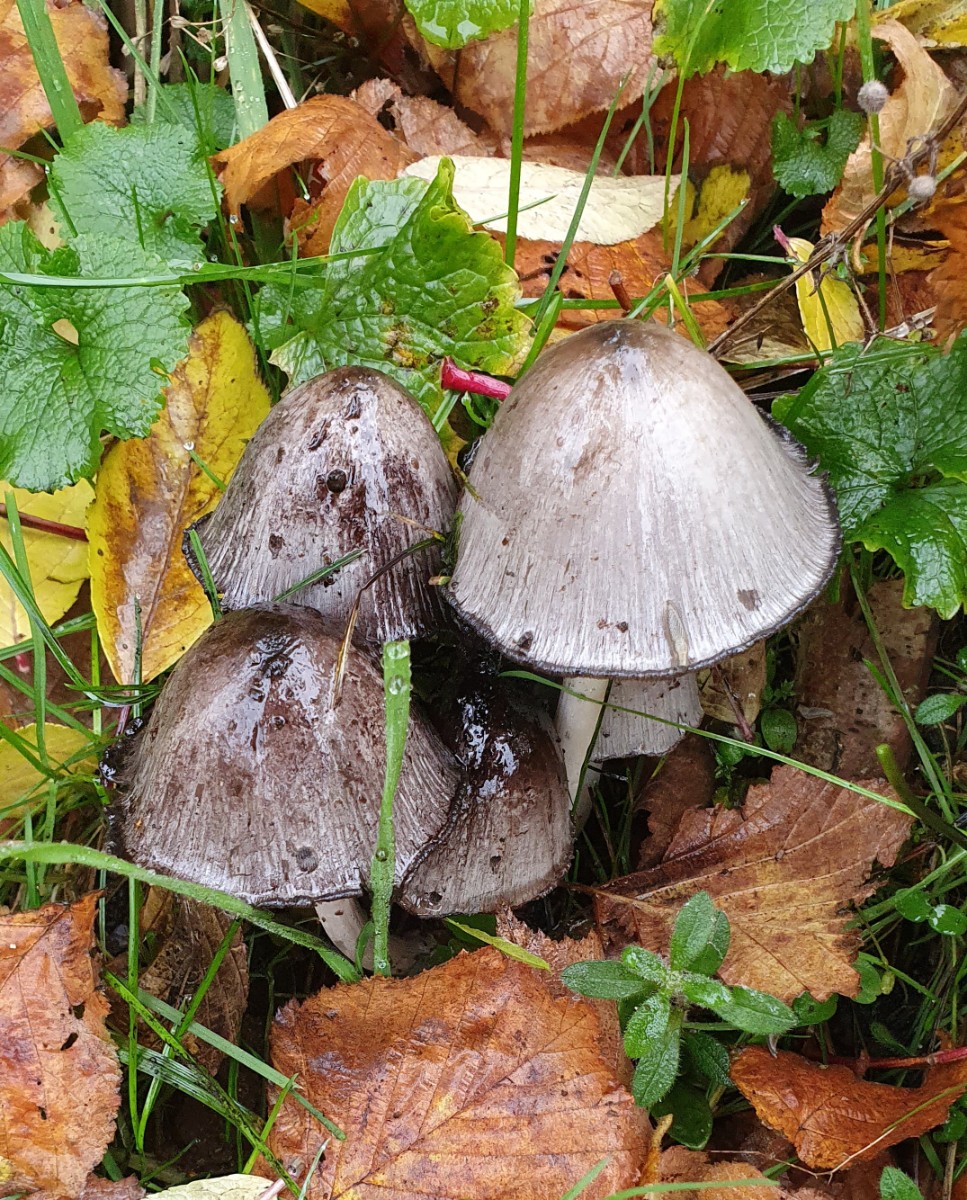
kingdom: Fungi
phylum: Basidiomycota
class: Agaricomycetes
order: Agaricales
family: Psathyrellaceae
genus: Coprinopsis
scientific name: Coprinopsis atramentaria
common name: almindelig blækhat
